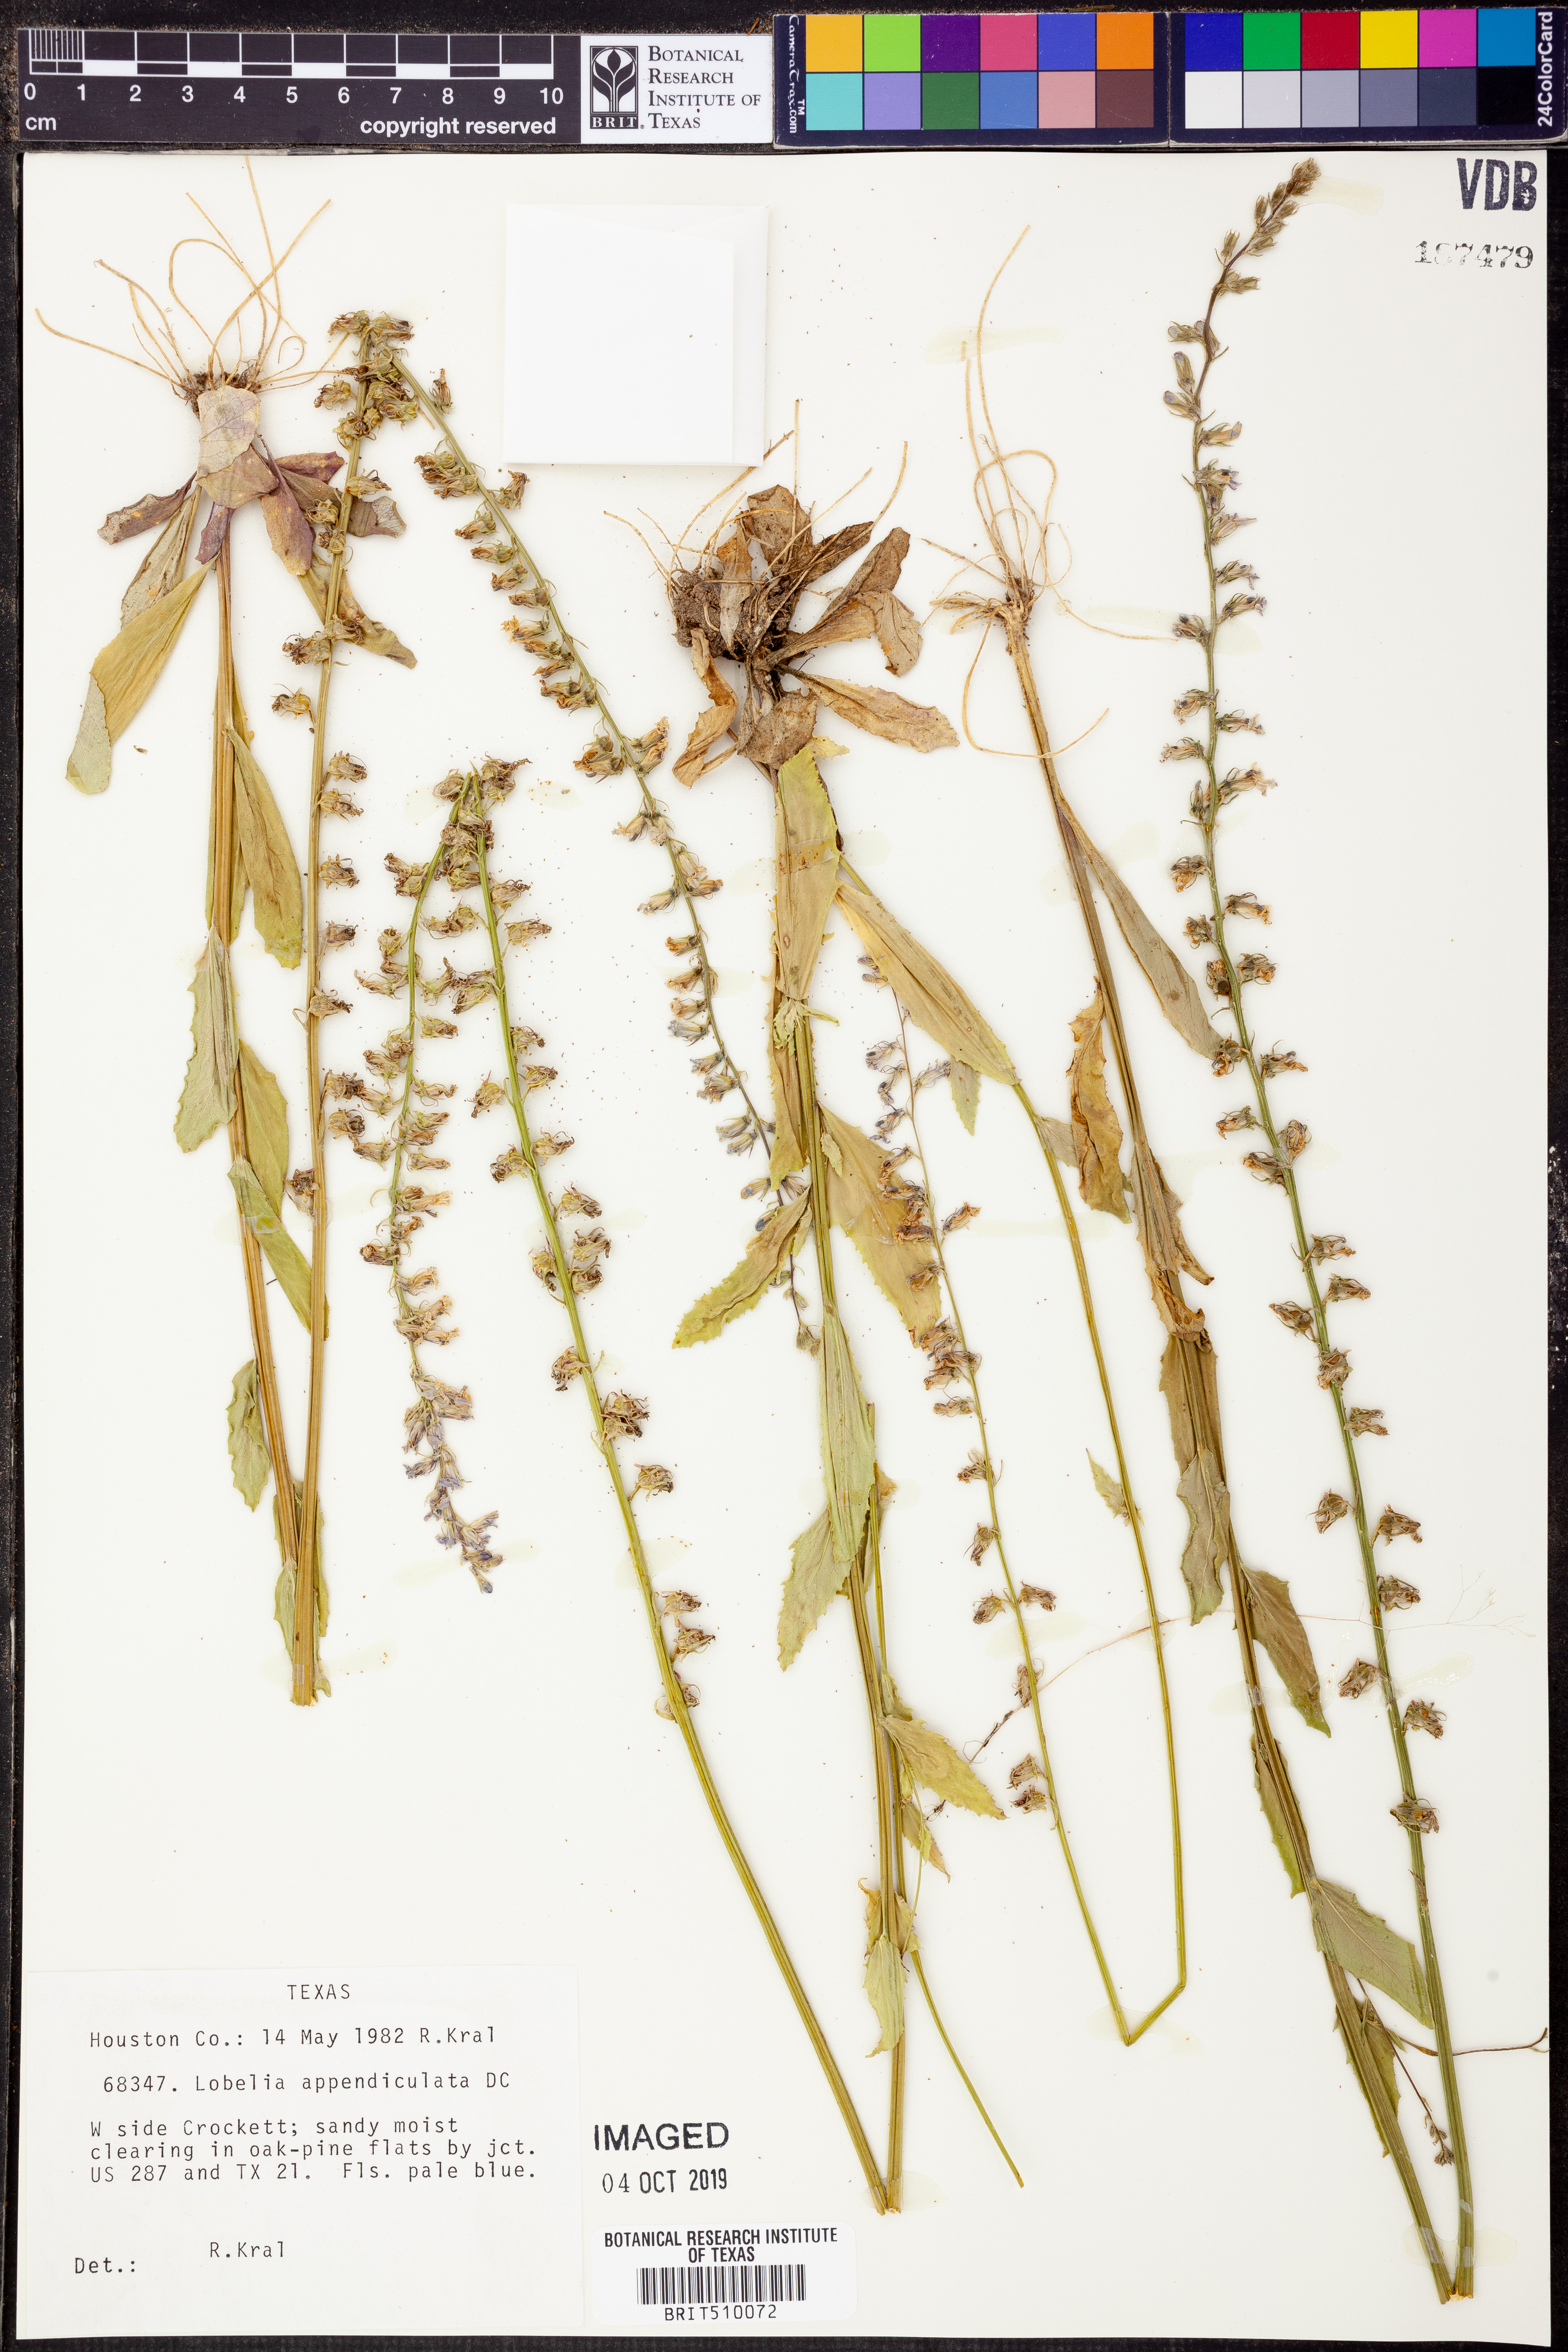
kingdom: Plantae
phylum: Tracheophyta
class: Magnoliopsida
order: Asterales
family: Campanulaceae
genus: Lobelia
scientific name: Lobelia appendiculata
